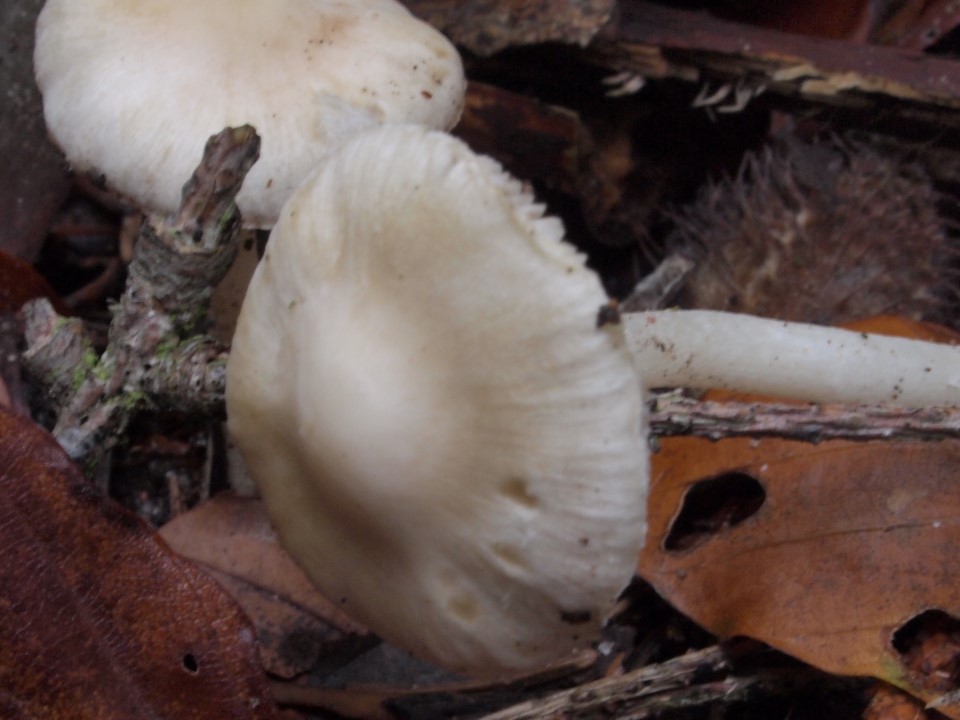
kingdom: Fungi
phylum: Basidiomycota
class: Agaricomycetes
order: Agaricales
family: Inocybaceae
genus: Inocybe
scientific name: Inocybe
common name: almindelig trævlhat
